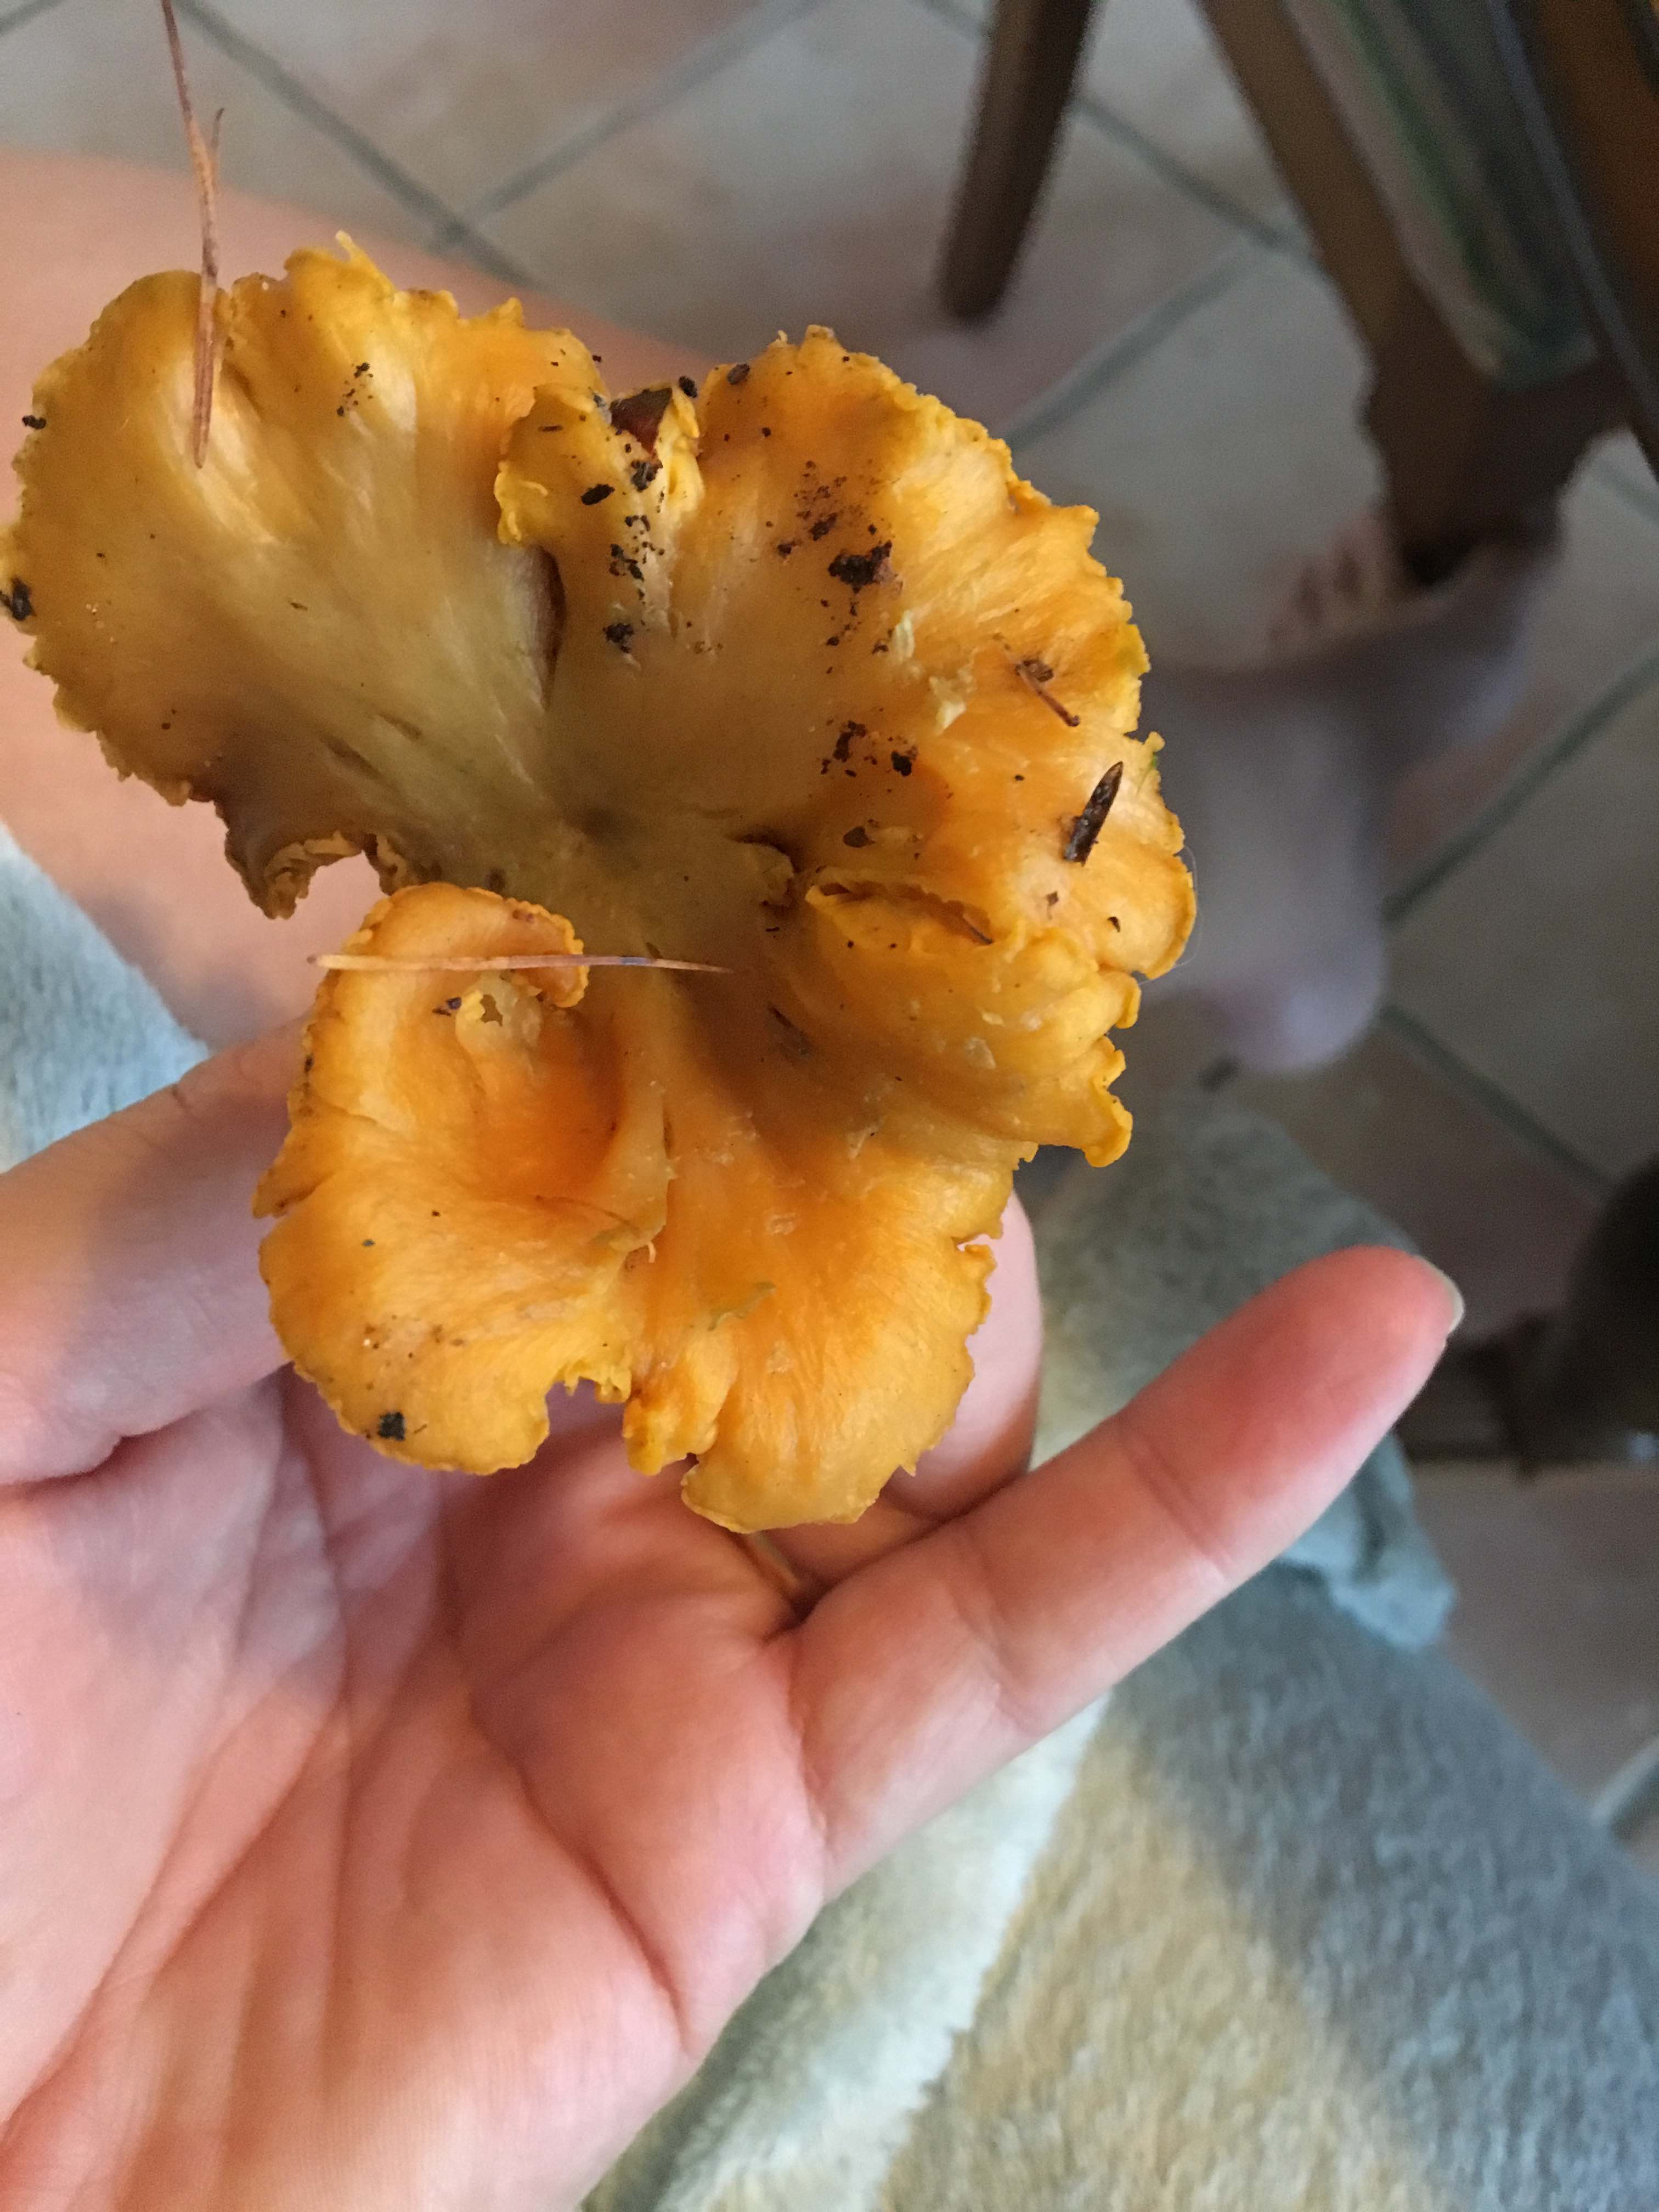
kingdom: Fungi
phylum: Basidiomycota
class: Agaricomycetes
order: Cantharellales
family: Hydnaceae
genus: Cantharellus
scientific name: Cantharellus cibarius
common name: almindelig kantarel
